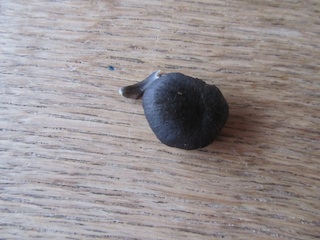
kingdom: Fungi
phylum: Basidiomycota
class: Agaricomycetes
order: Agaricales
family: Entolomataceae
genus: Entoloma
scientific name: Entoloma
